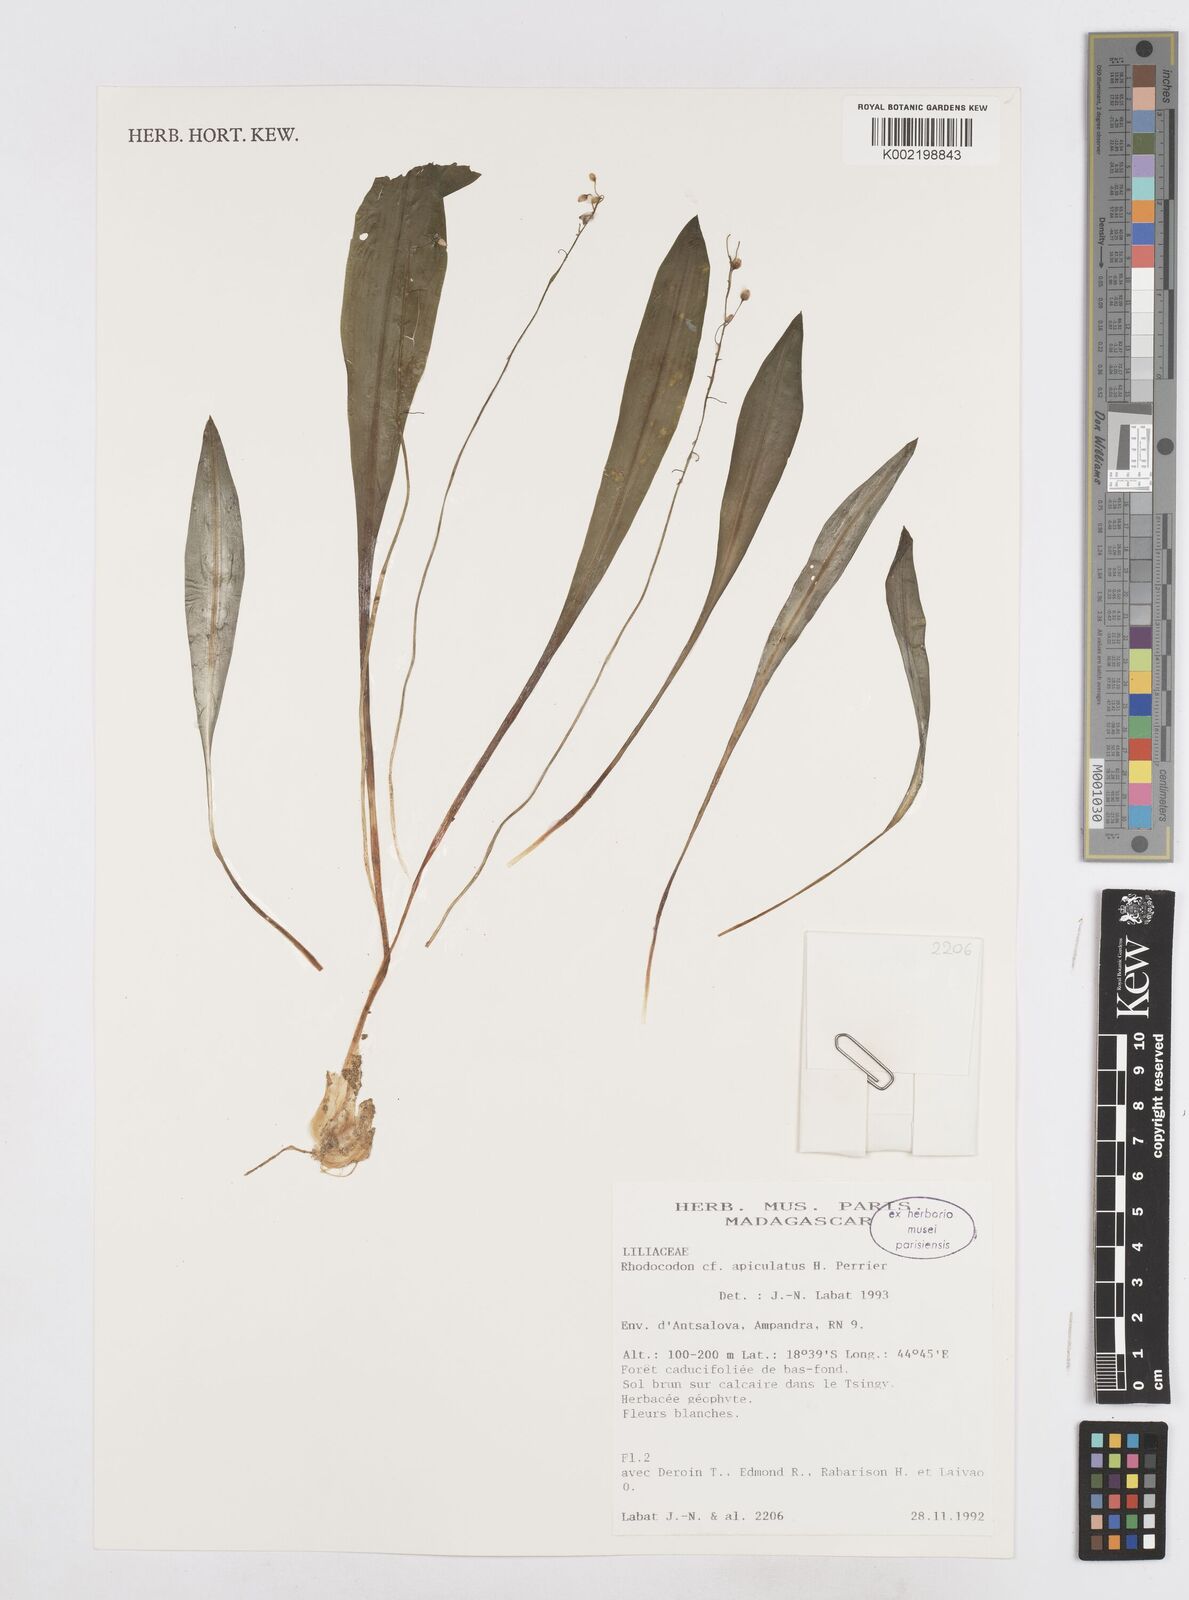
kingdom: Plantae
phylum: Tracheophyta
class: Liliopsida
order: Asparagales
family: Asparagaceae
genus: Drimia
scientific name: Drimia
